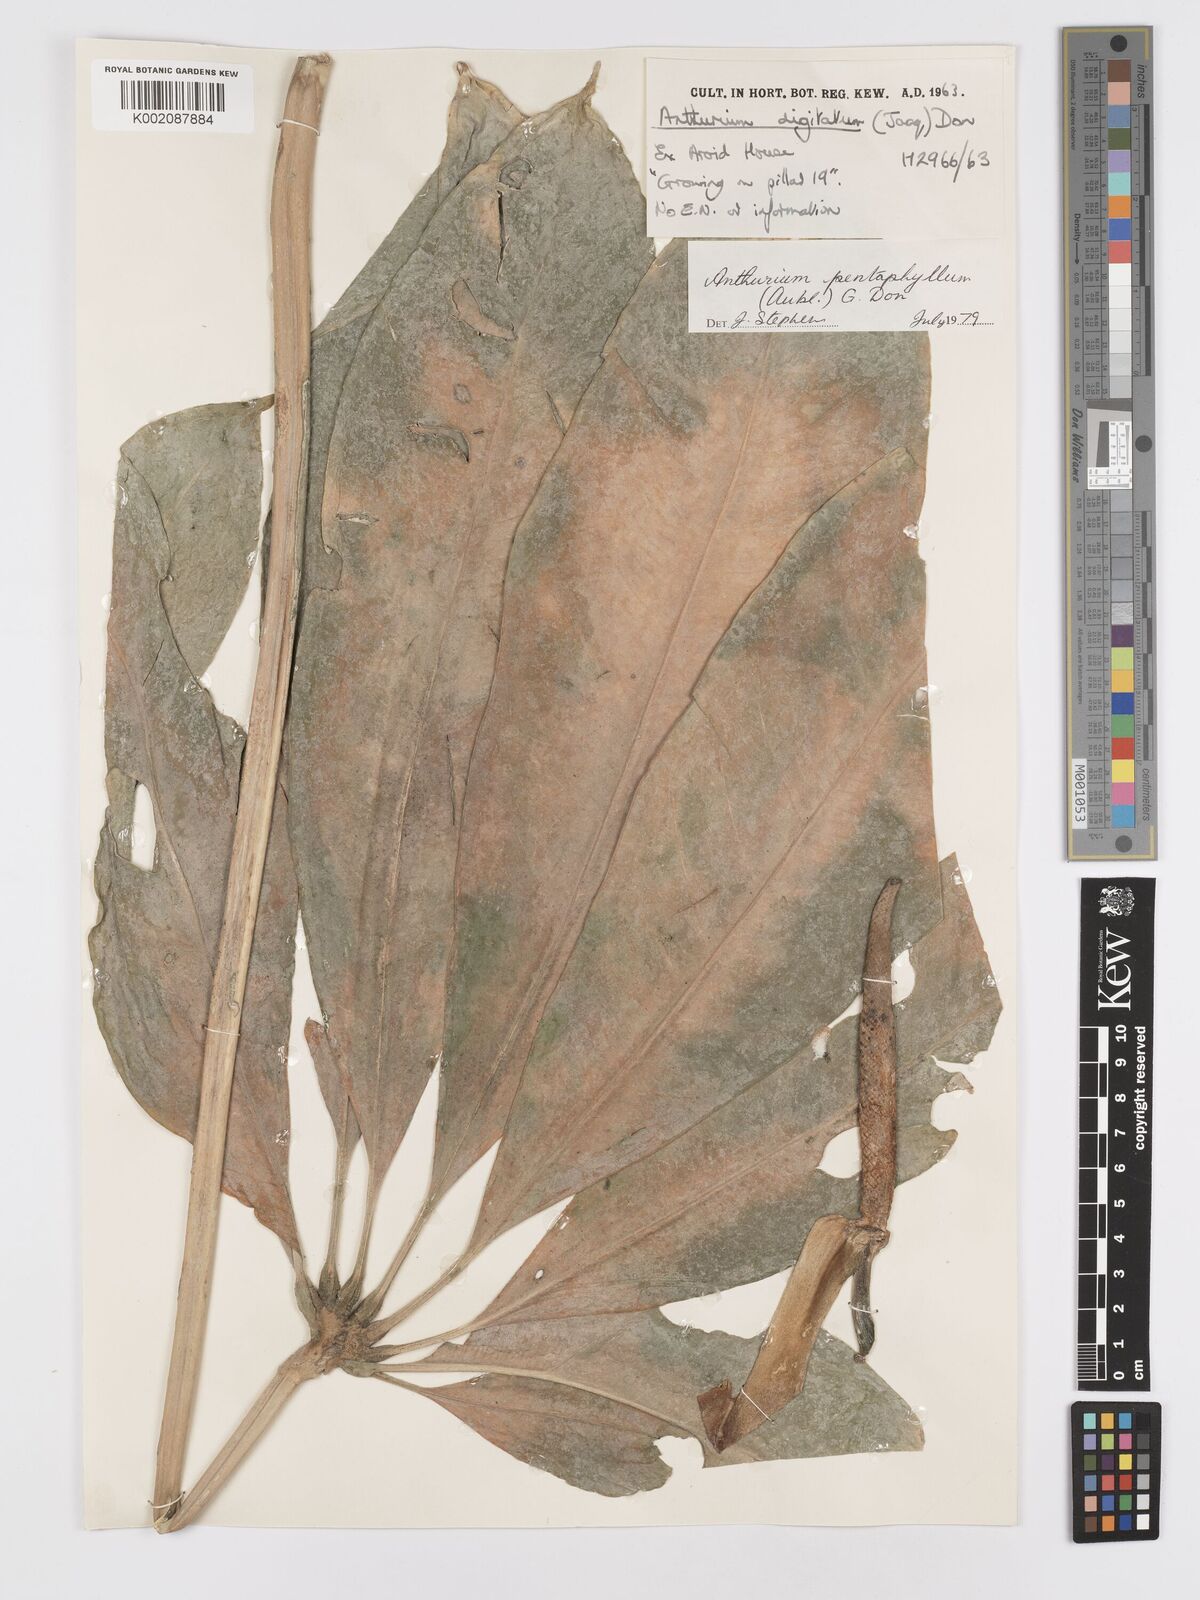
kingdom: Plantae
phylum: Tracheophyta
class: Liliopsida
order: Alismatales
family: Araceae
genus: Anthurium
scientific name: Anthurium pentaphyllum
